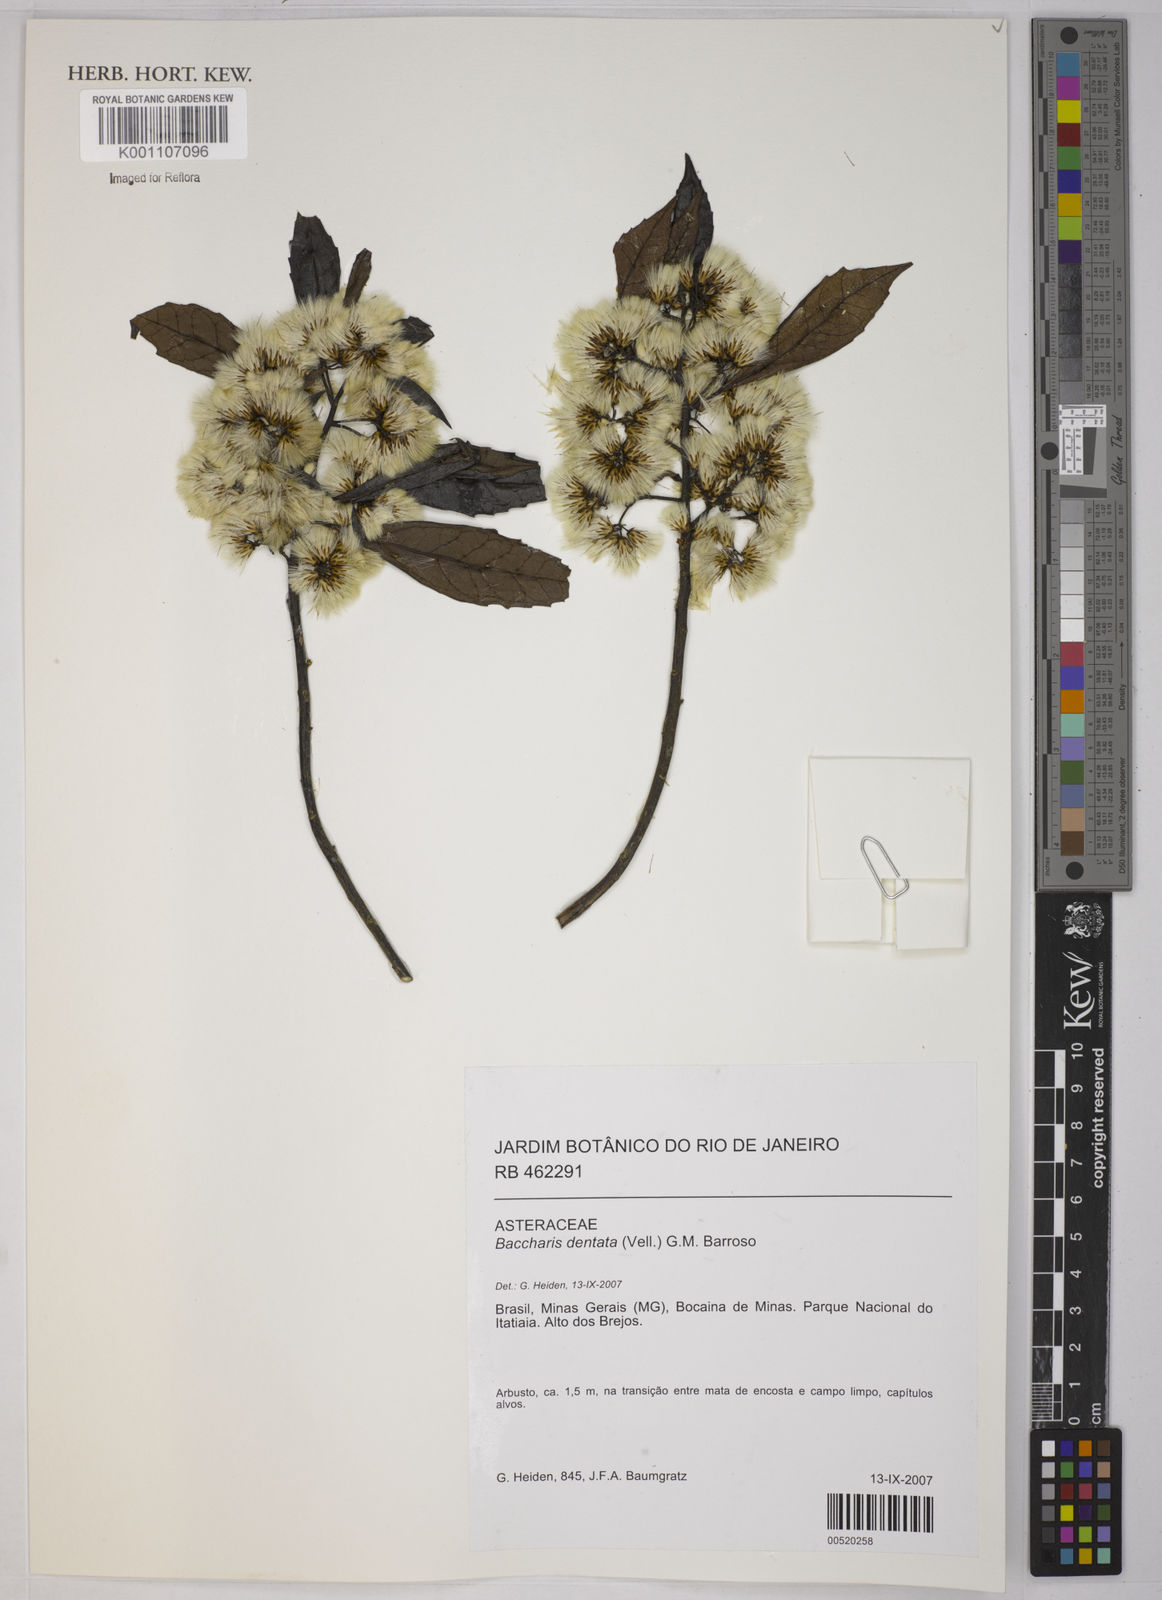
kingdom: Plantae
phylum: Tracheophyta
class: Magnoliopsida
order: Asterales
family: Asteraceae
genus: Baccharis
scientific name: Baccharis dentata
